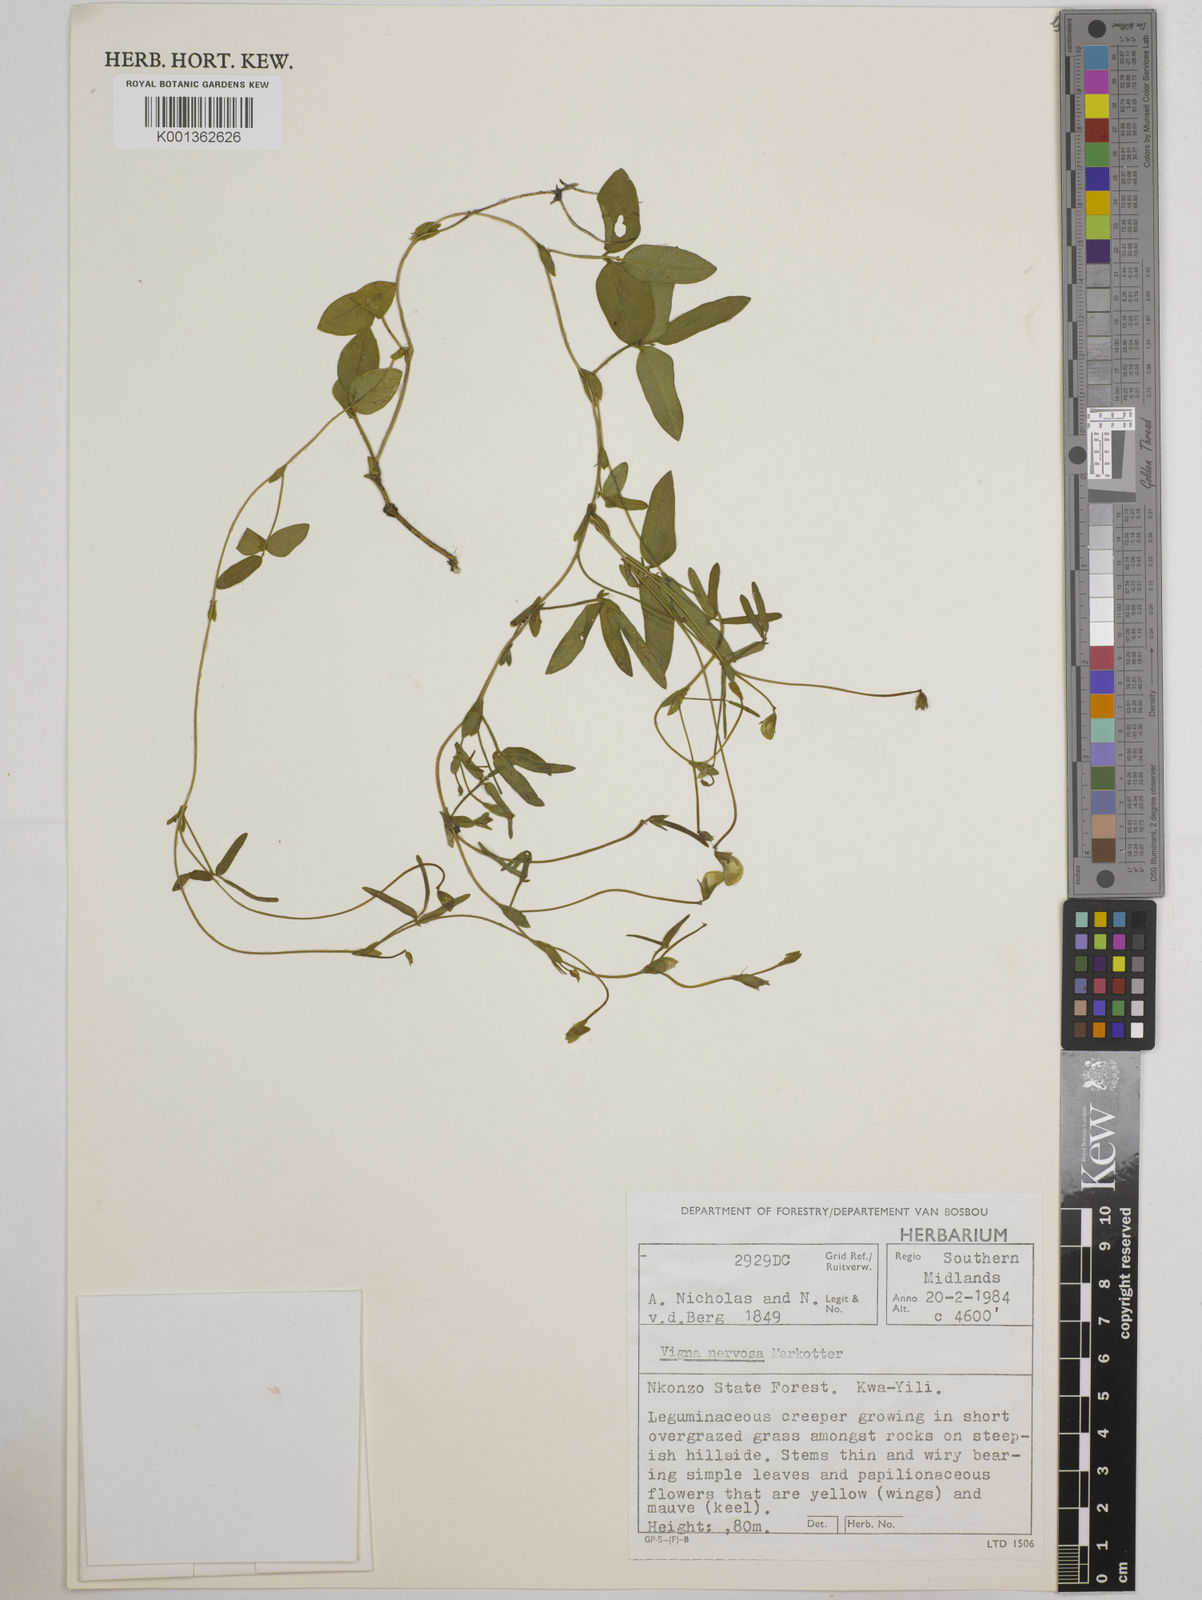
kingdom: Plantae
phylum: Tracheophyta
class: Magnoliopsida
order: Fabales
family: Fabaceae
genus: Vigna
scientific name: Vigna nervosa
